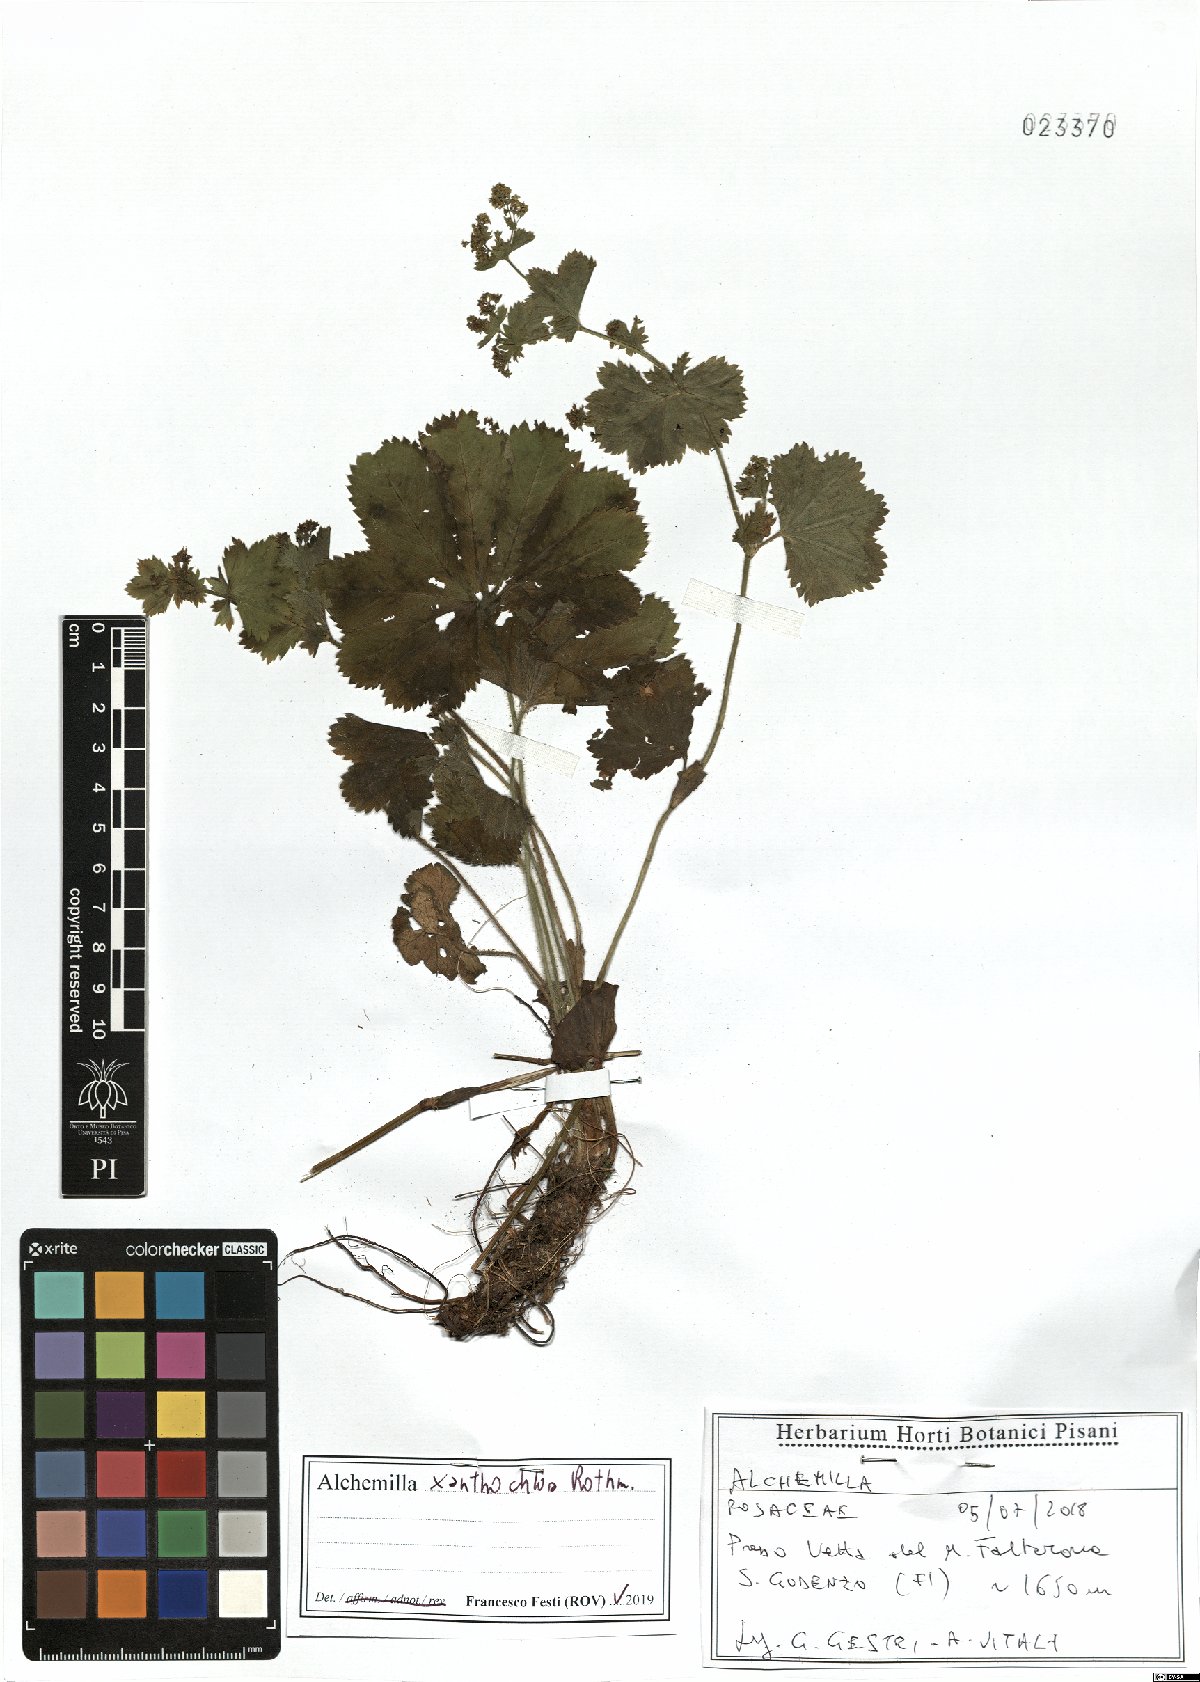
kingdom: Plantae
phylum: Tracheophyta
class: Magnoliopsida
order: Rosales
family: Rosaceae
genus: Alchemilla
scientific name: Alchemilla xanthochlora
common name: Intermediate lady's-mantle
